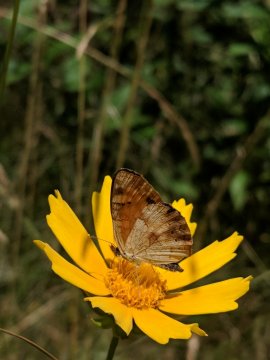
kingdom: Animalia
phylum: Arthropoda
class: Insecta
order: Lepidoptera
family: Nymphalidae
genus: Phyciodes
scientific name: Phyciodes
